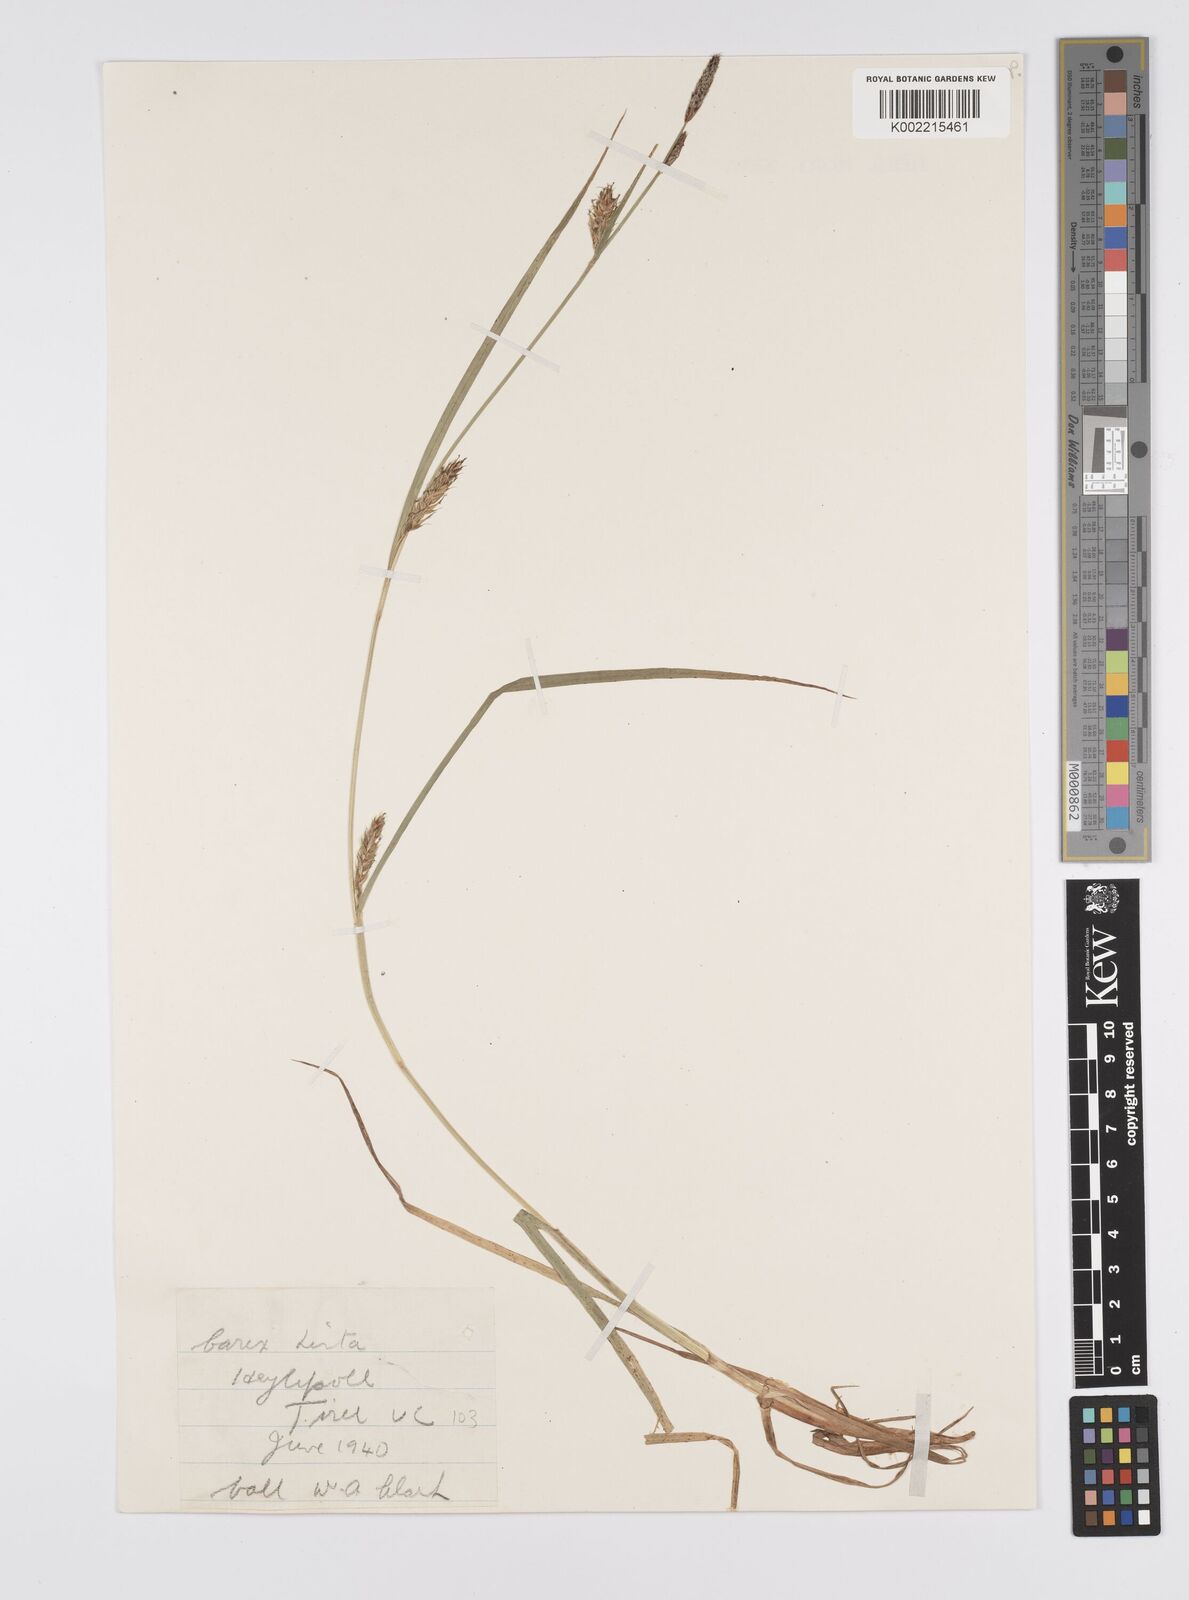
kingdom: Plantae
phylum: Tracheophyta
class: Liliopsida
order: Poales
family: Cyperaceae
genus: Carex
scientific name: Carex hirta
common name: Hairy sedge
